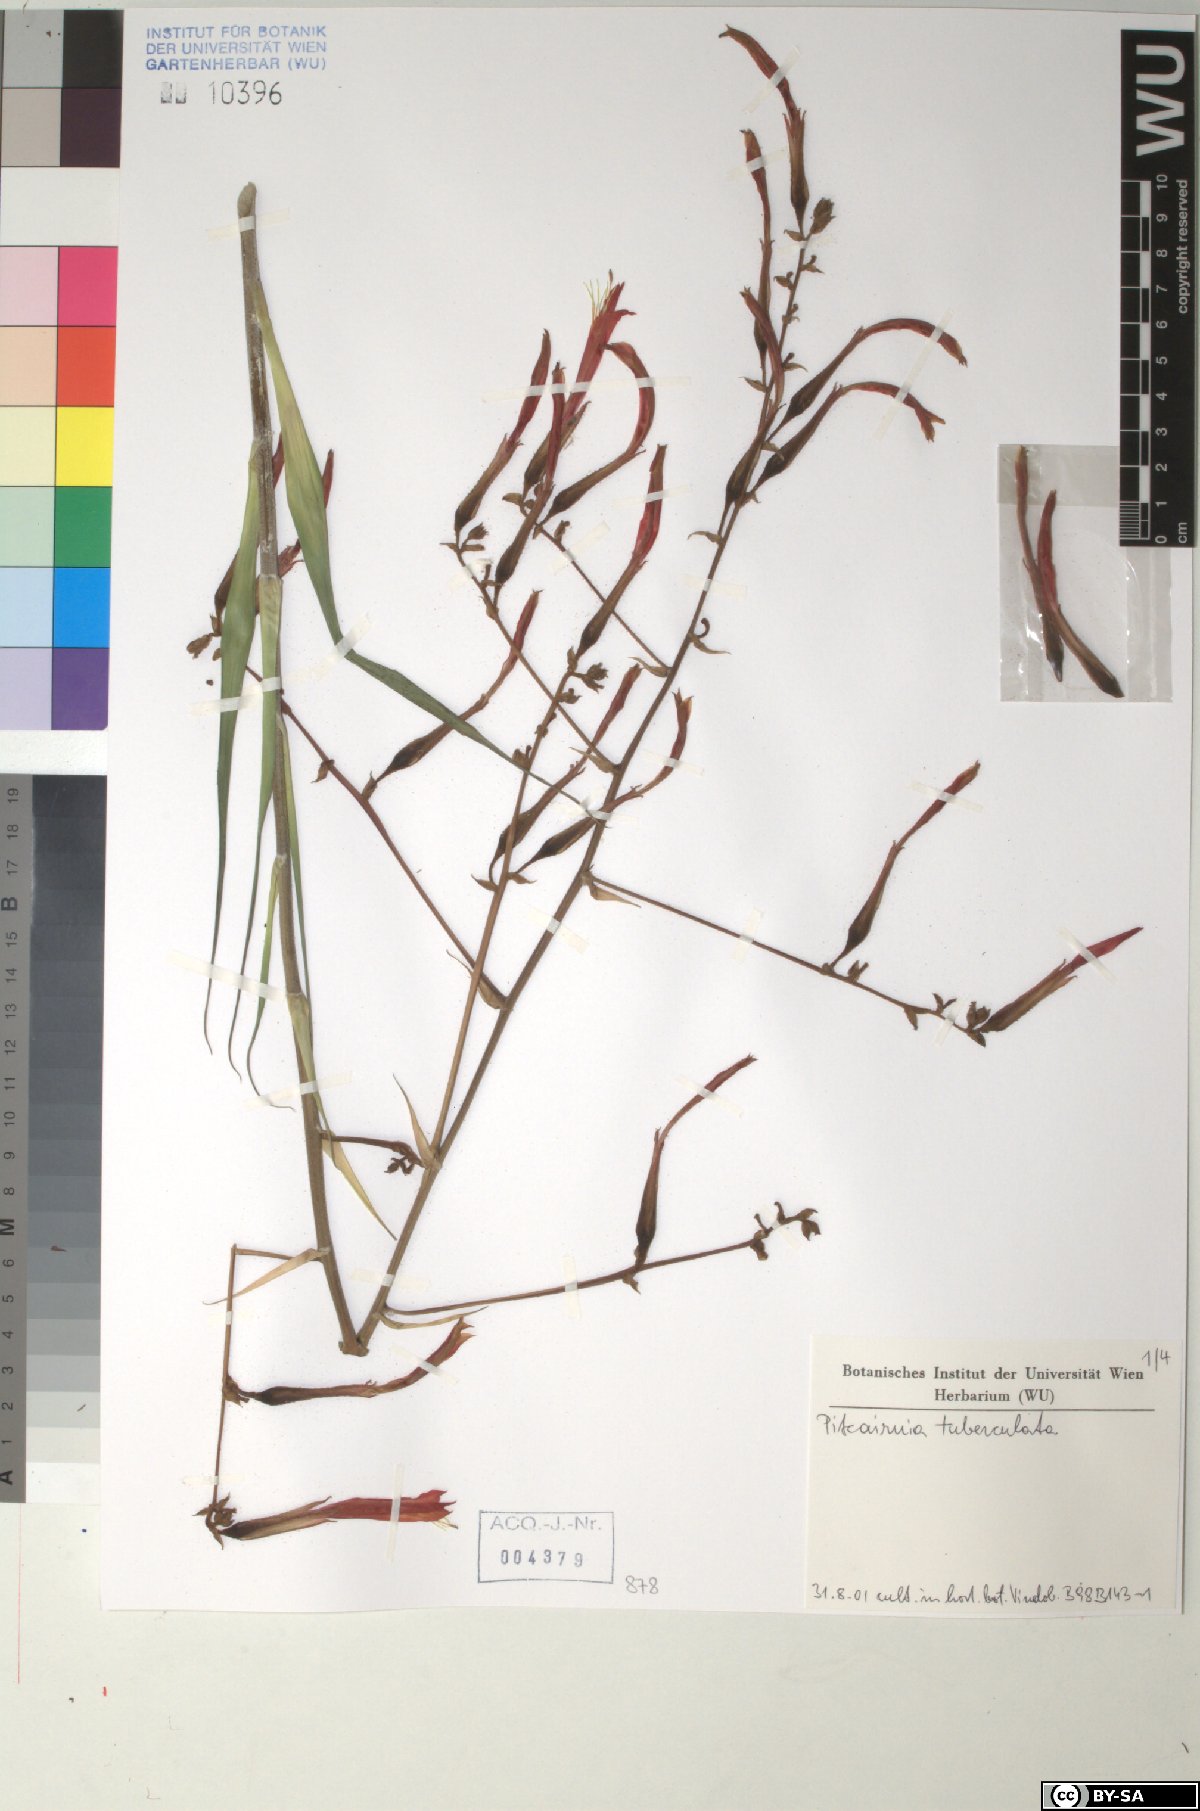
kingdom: Plantae
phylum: Tracheophyta
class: Liliopsida
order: Poales
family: Bromeliaceae
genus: Pitcairnia
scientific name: Pitcairnia tuberculata
